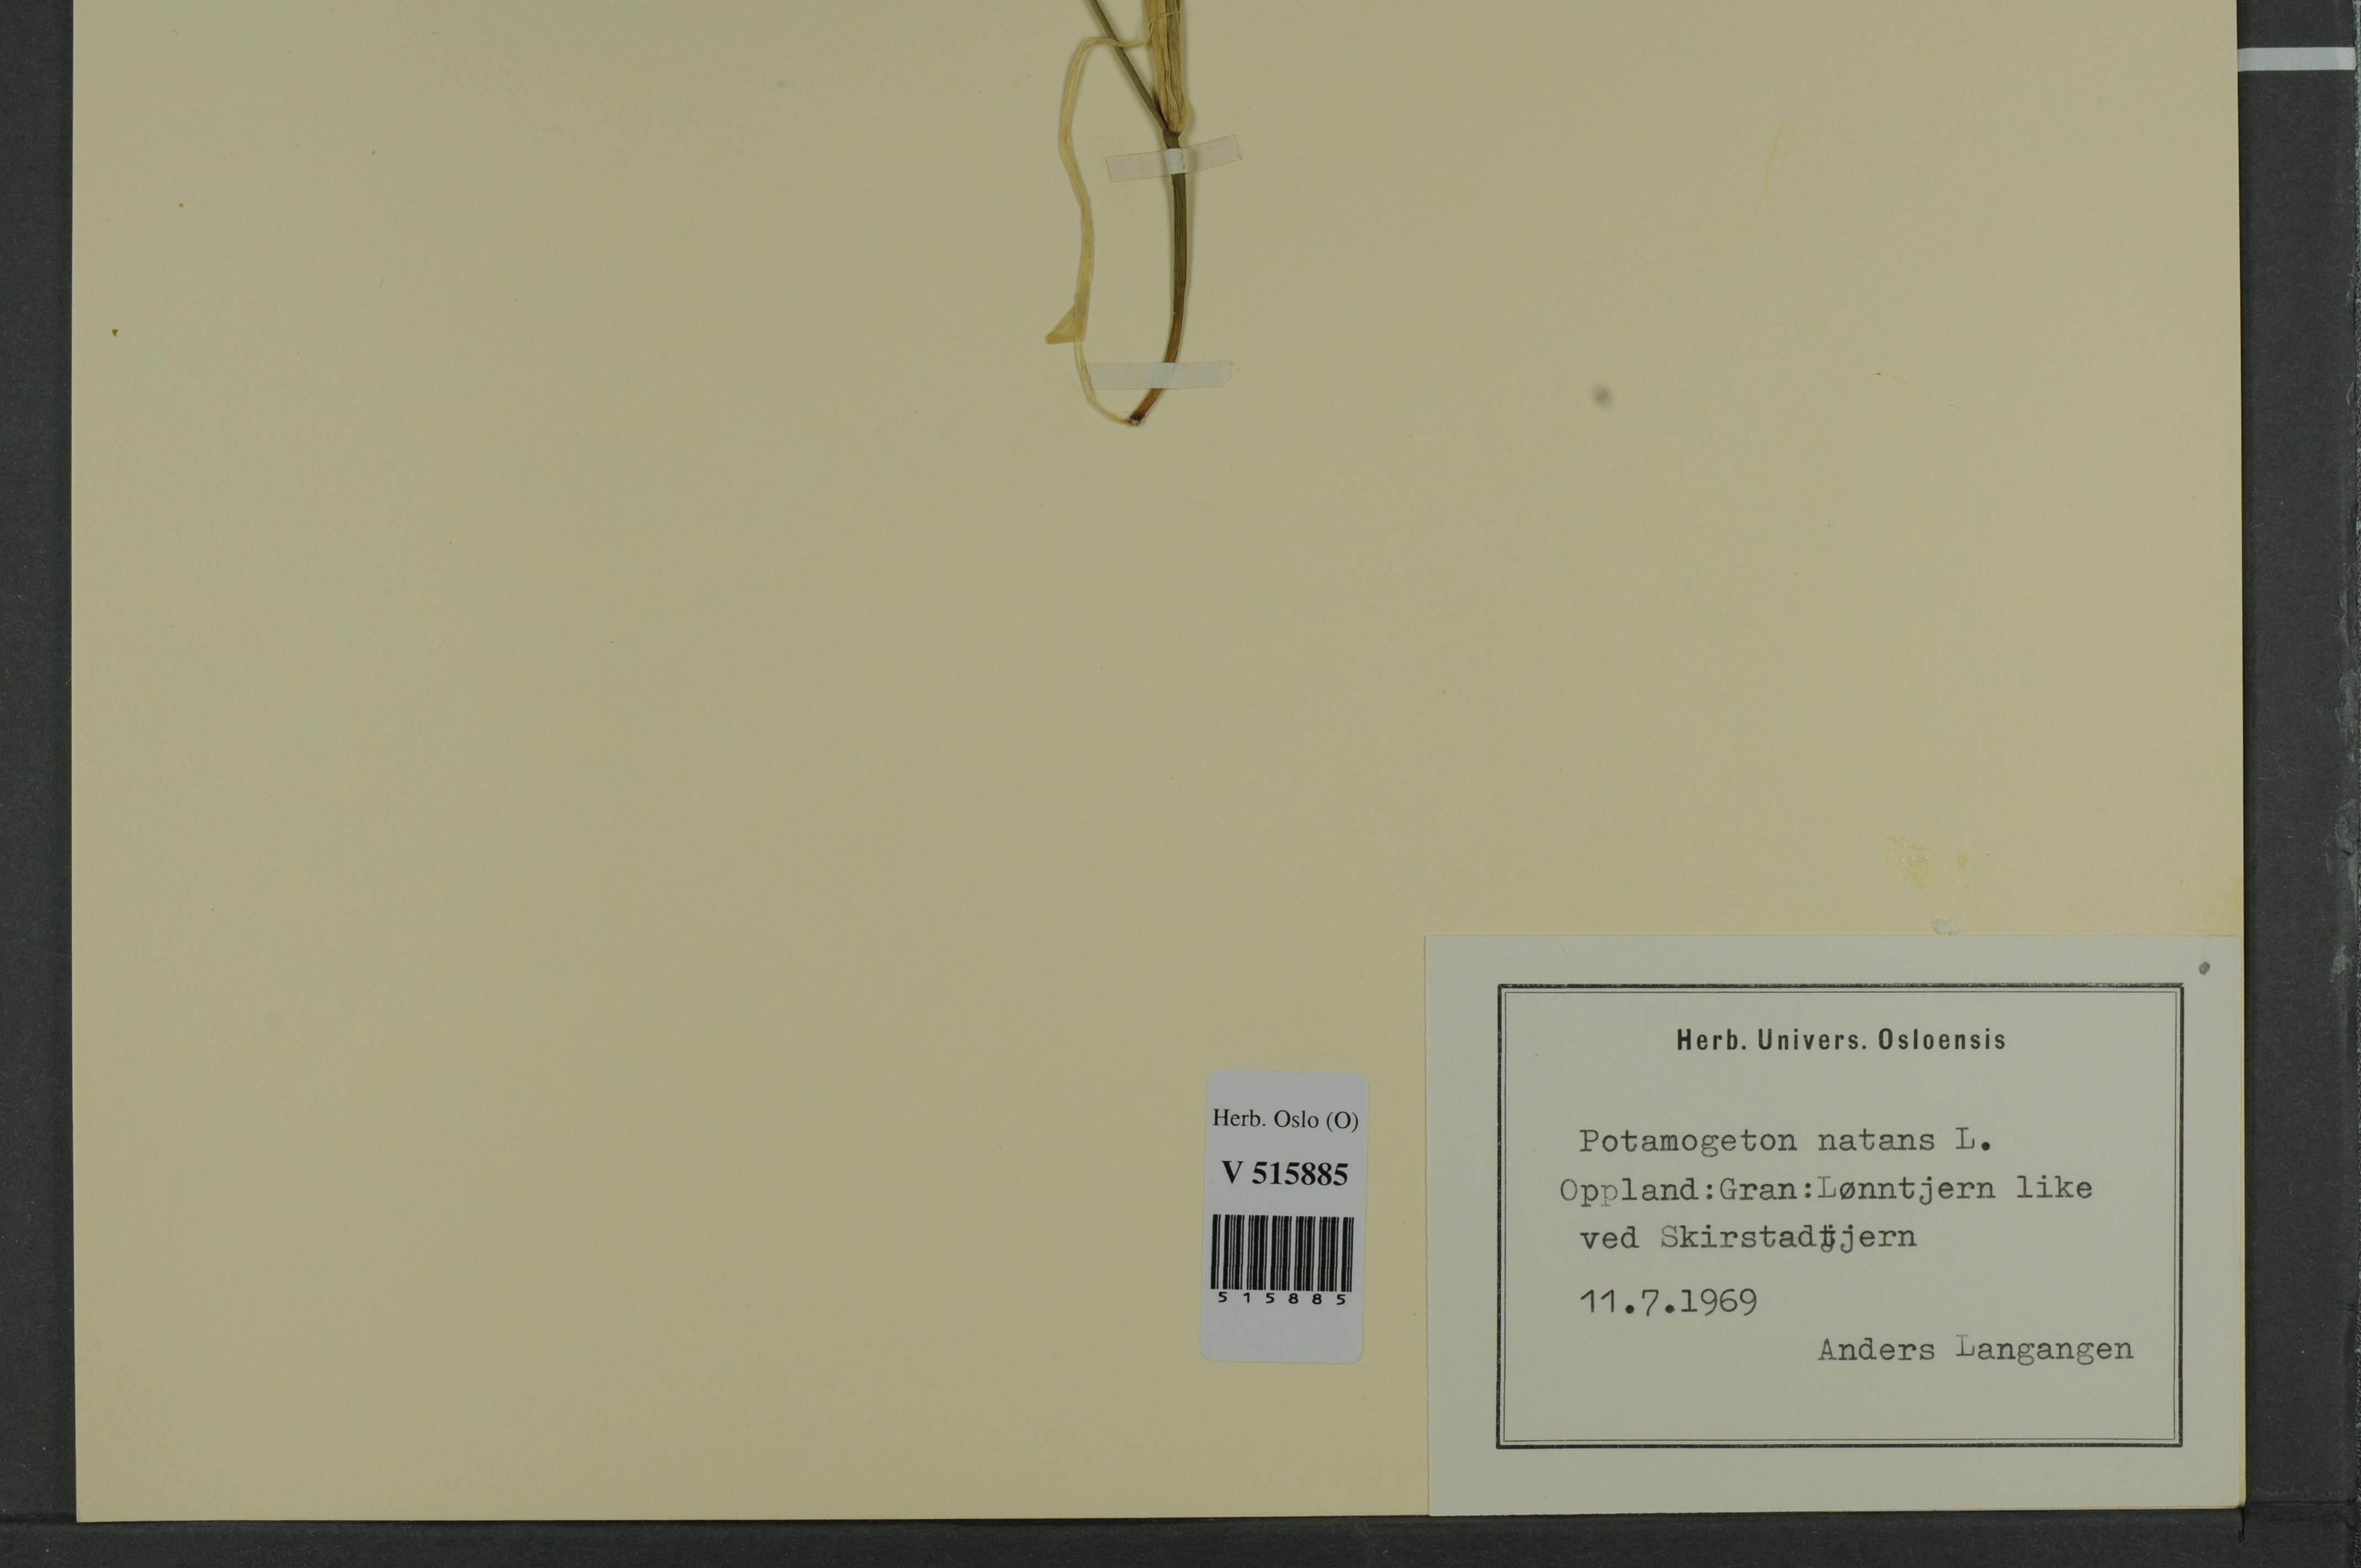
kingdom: Plantae
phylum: Tracheophyta
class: Liliopsida
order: Alismatales
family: Potamogetonaceae
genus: Potamogeton
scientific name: Potamogeton natans
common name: Broad-leaved pondweed
